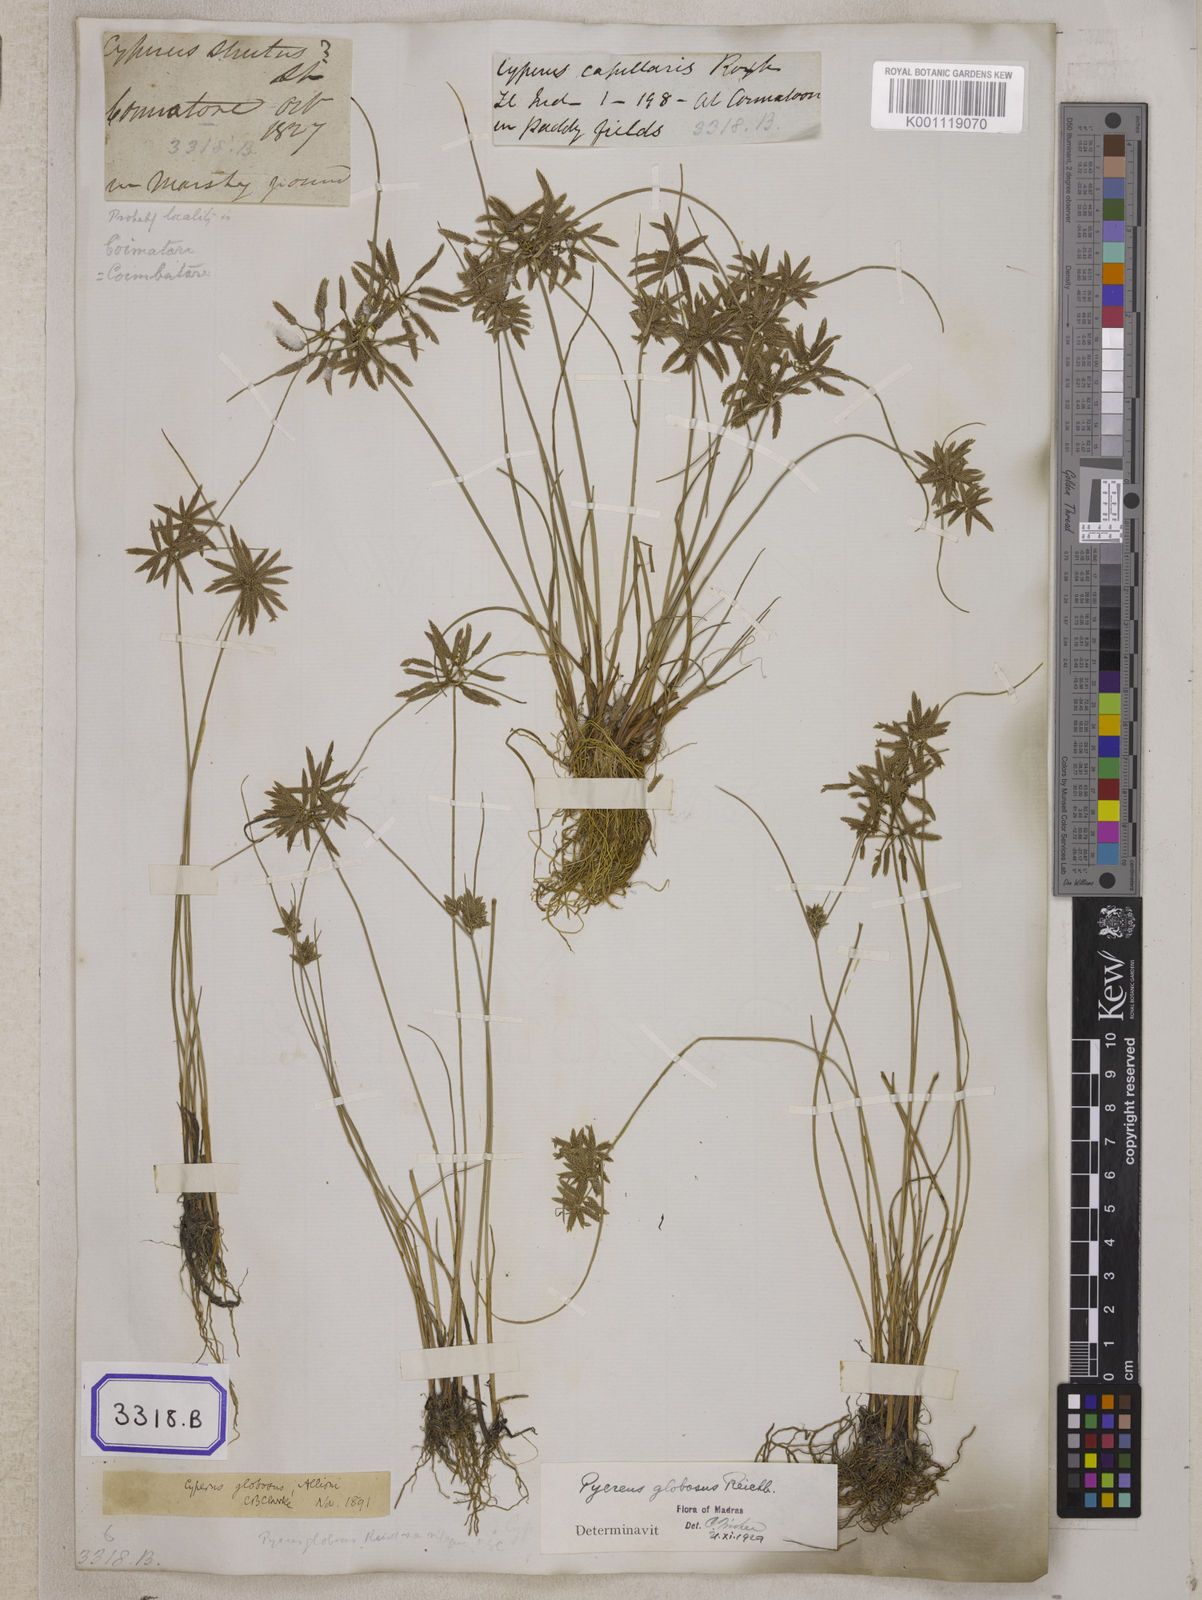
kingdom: Plantae
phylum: Tracheophyta
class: Liliopsida
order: Poales
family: Cyperaceae
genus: Cyperus
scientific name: Cyperus
